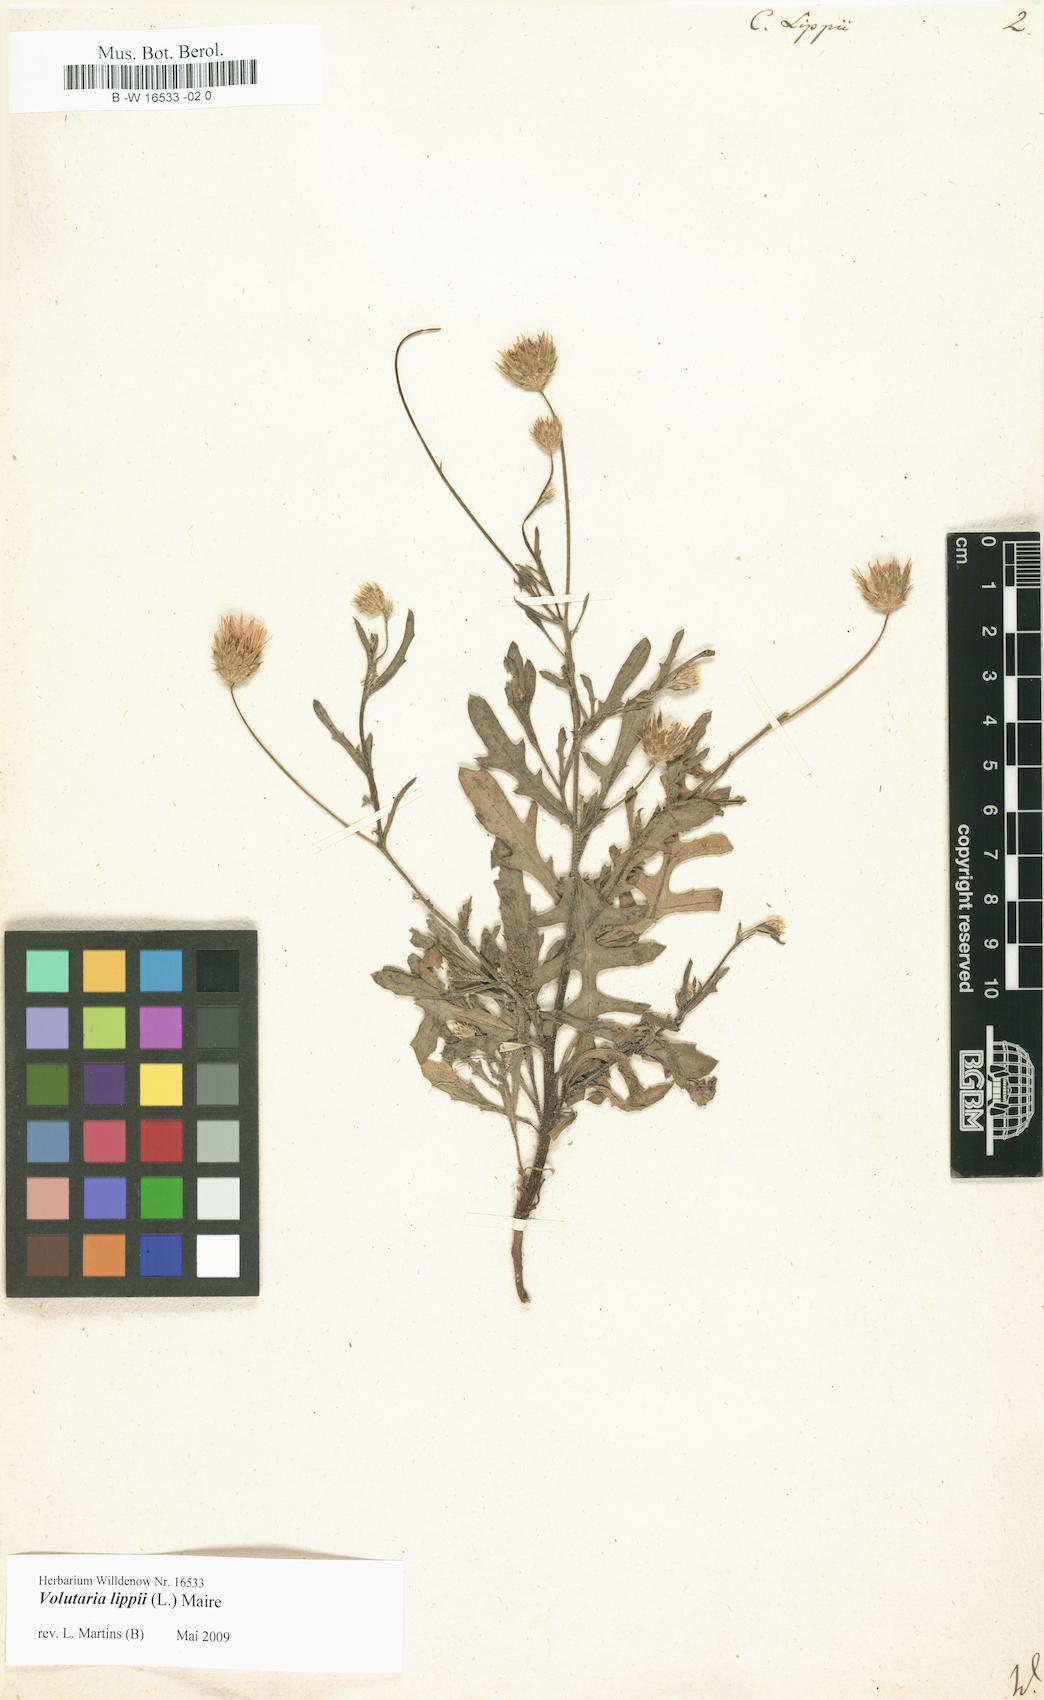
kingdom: Plantae
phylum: Tracheophyta
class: Magnoliopsida
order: Asterales
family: Asteraceae
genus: Volutaria
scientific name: Volutaria lippii
